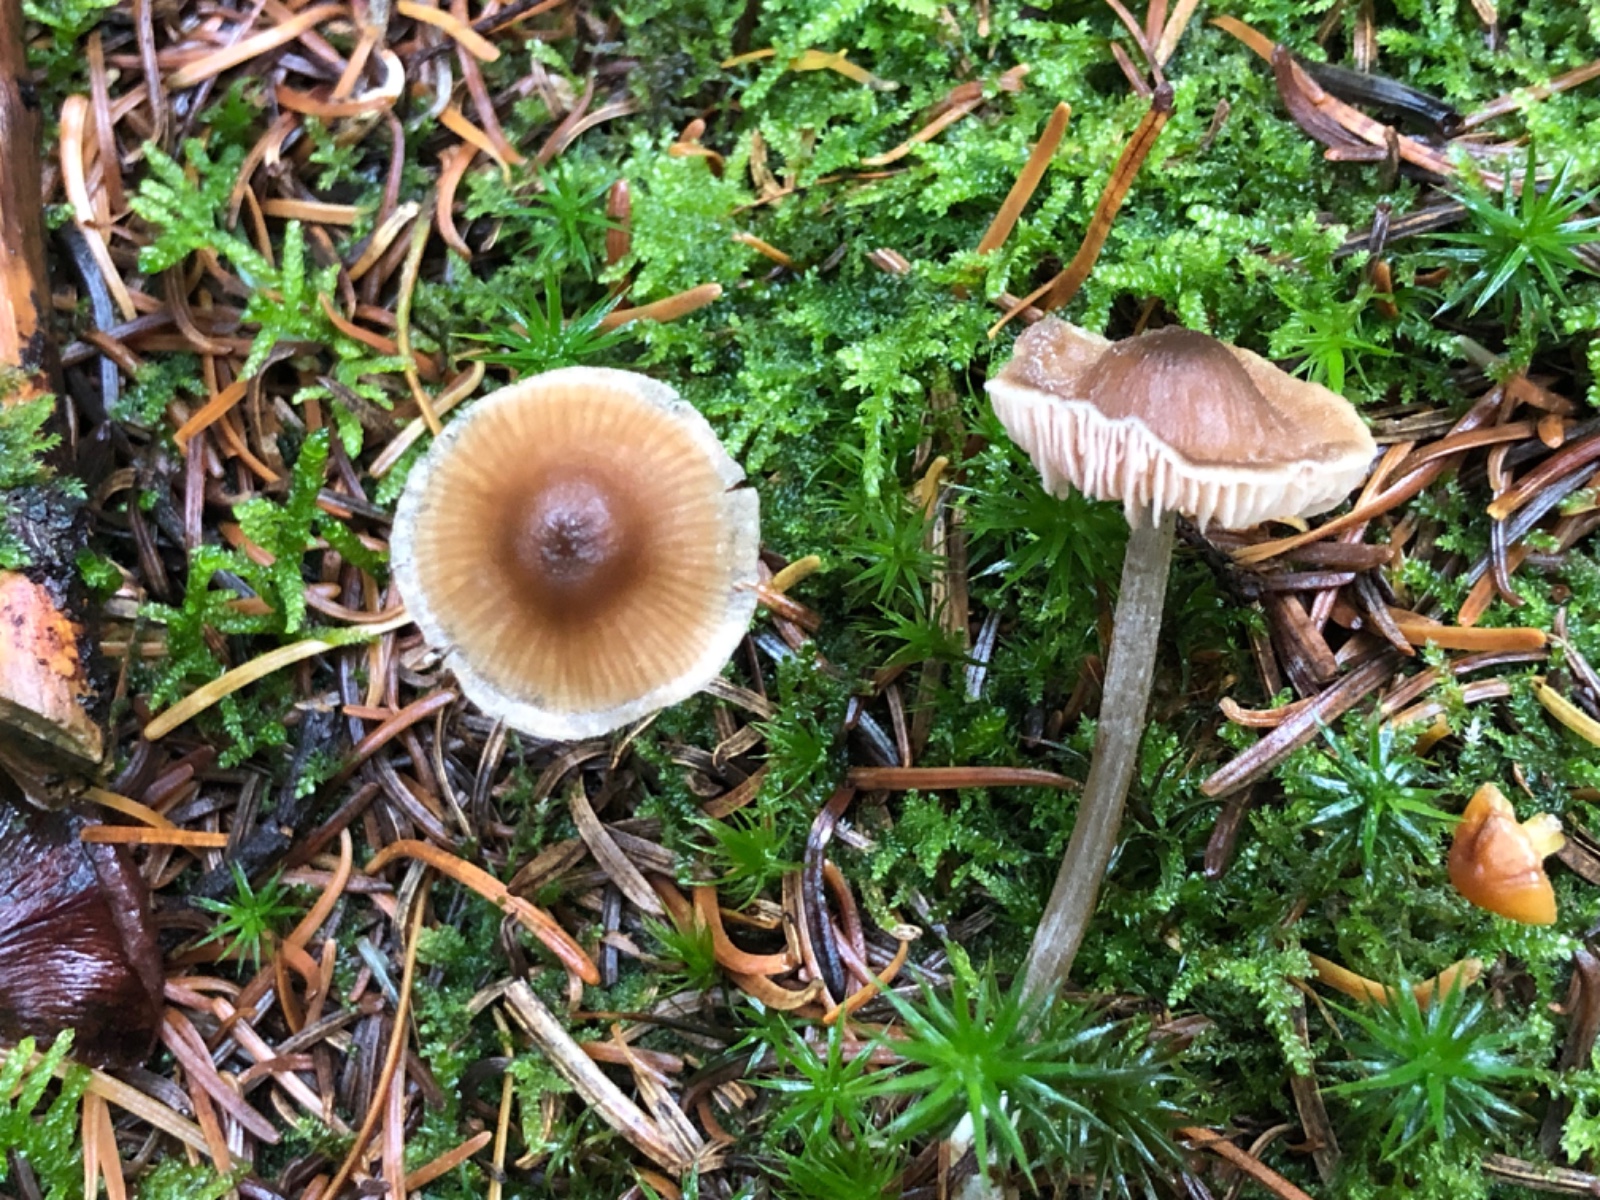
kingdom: Fungi
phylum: Basidiomycota
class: Agaricomycetes
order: Agaricales
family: Entolomataceae
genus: Entoloma
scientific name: Entoloma cetratum
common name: voks-rødblad
